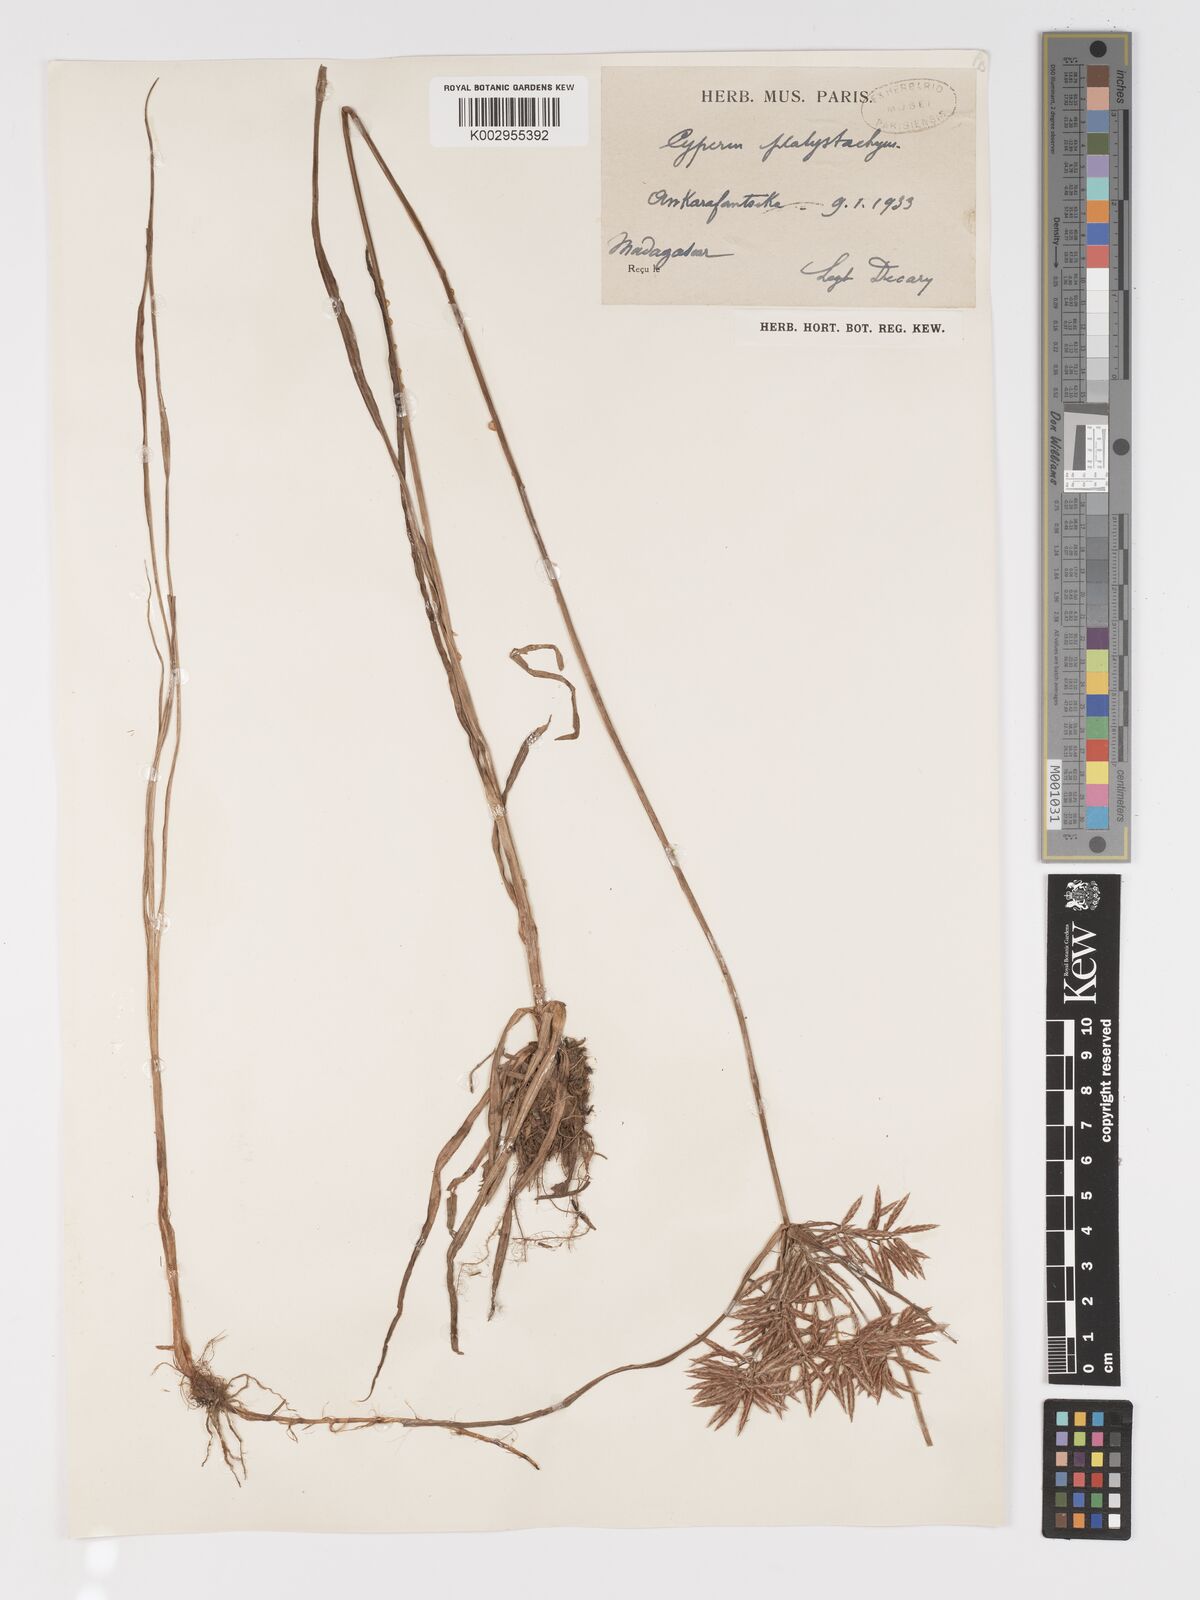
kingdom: Plantae
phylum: Tracheophyta
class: Liliopsida
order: Poales
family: Cyperaceae
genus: Cyperus
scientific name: Cyperus tuberosus
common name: Nut grass
